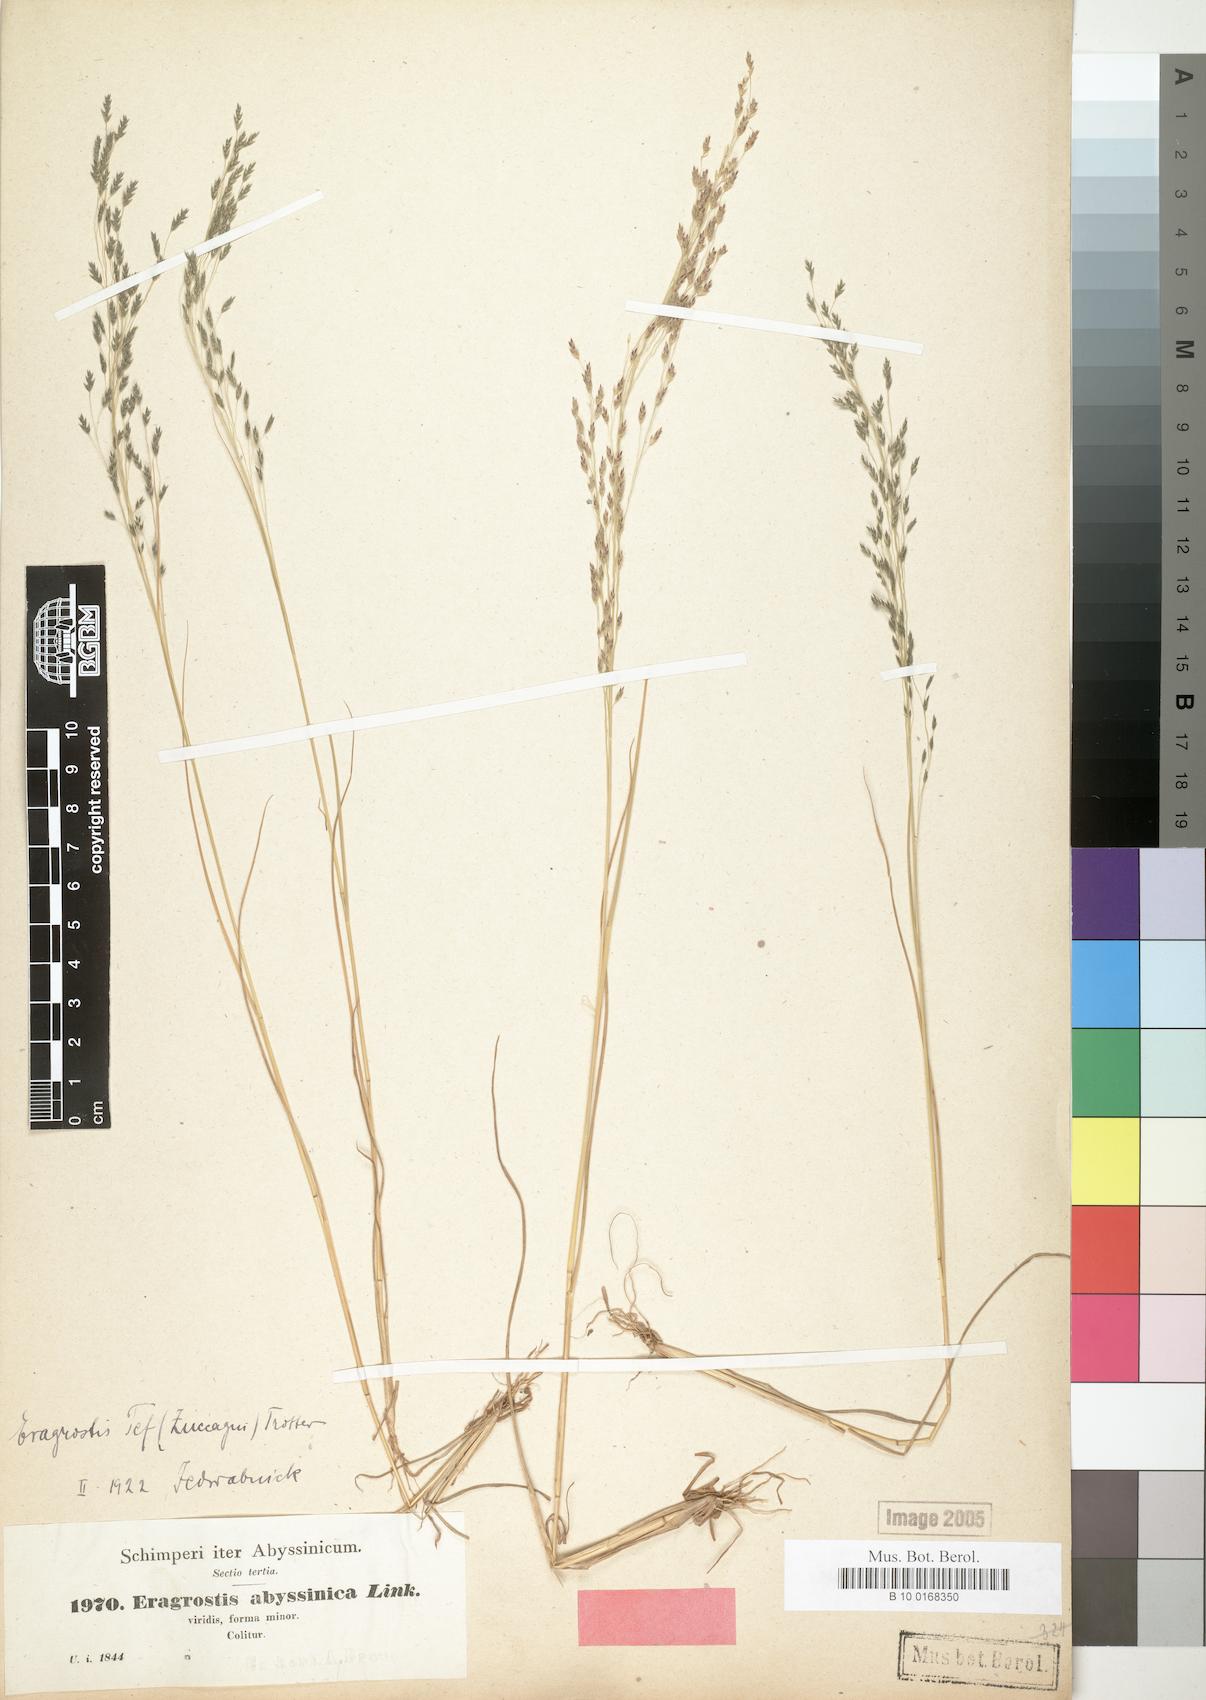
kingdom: Plantae
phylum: Tracheophyta
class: Liliopsida
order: Poales
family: Poaceae
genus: Eragrostis
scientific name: Eragrostis tef
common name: Teff
